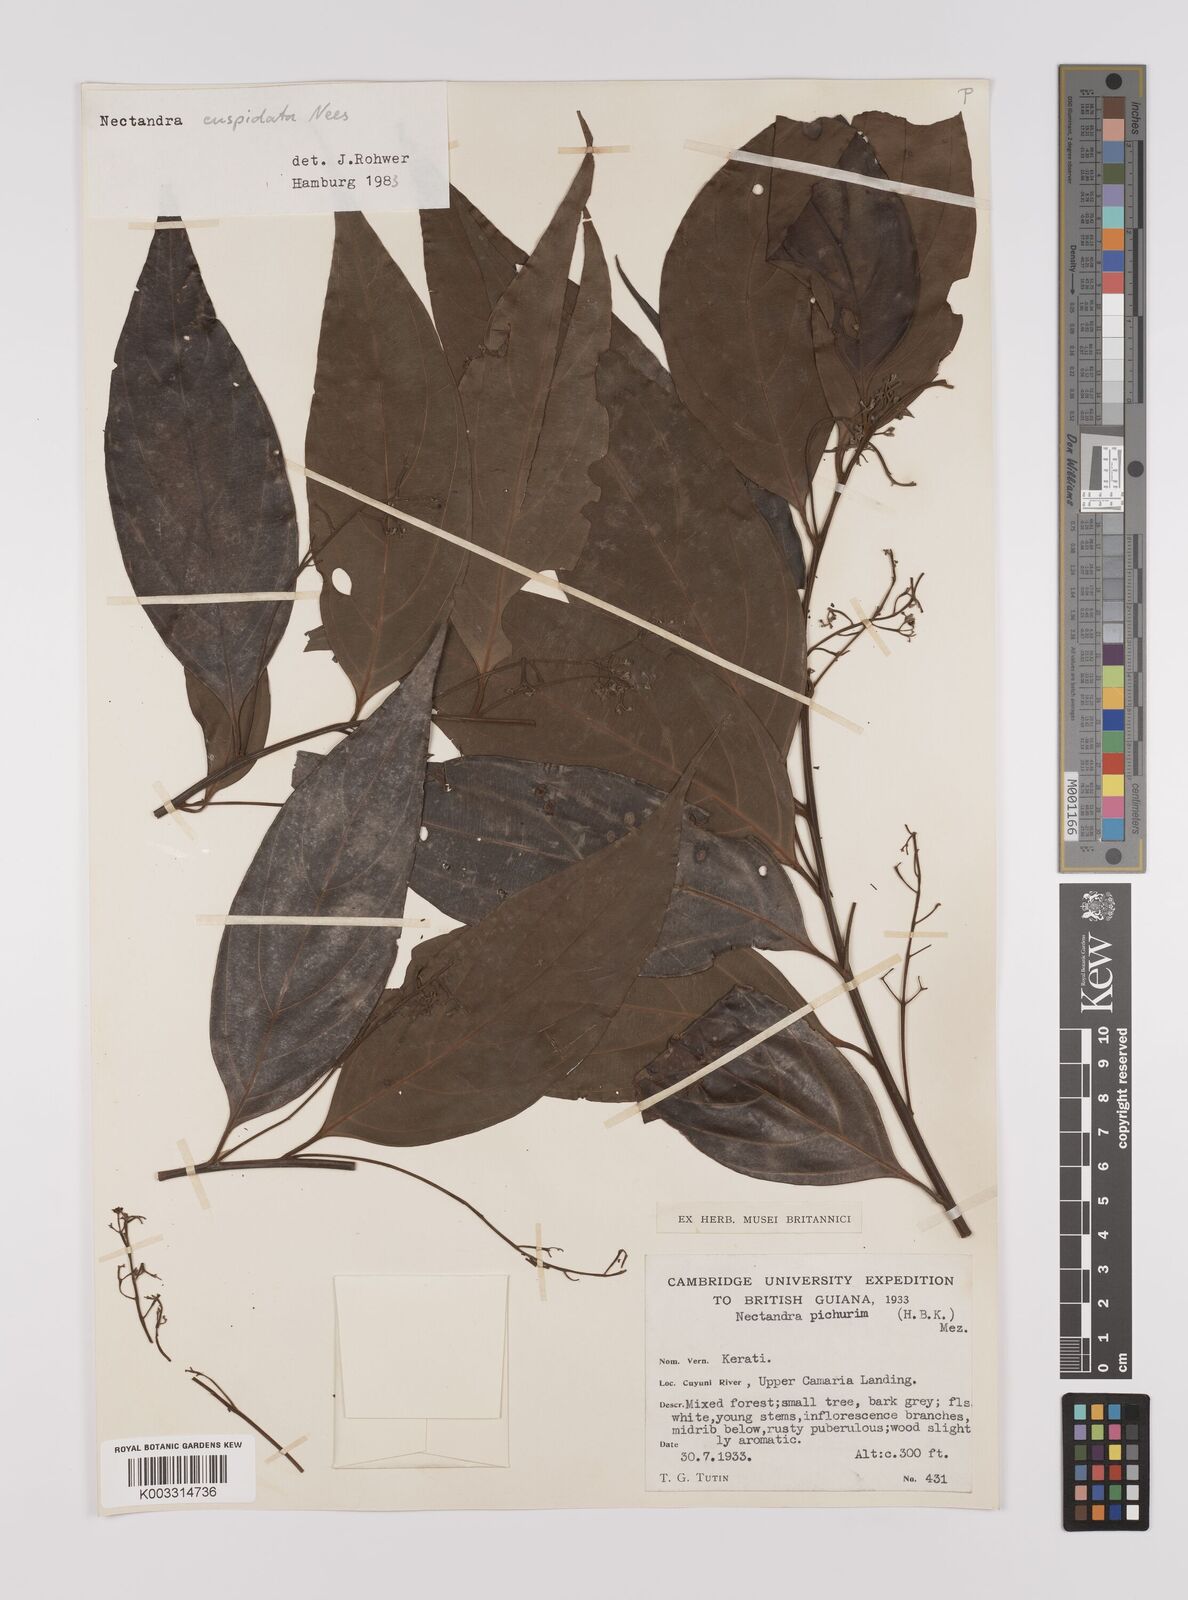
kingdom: Plantae
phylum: Tracheophyta
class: Magnoliopsida
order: Laurales
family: Lauraceae
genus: Nectandra
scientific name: Nectandra cuspidata
